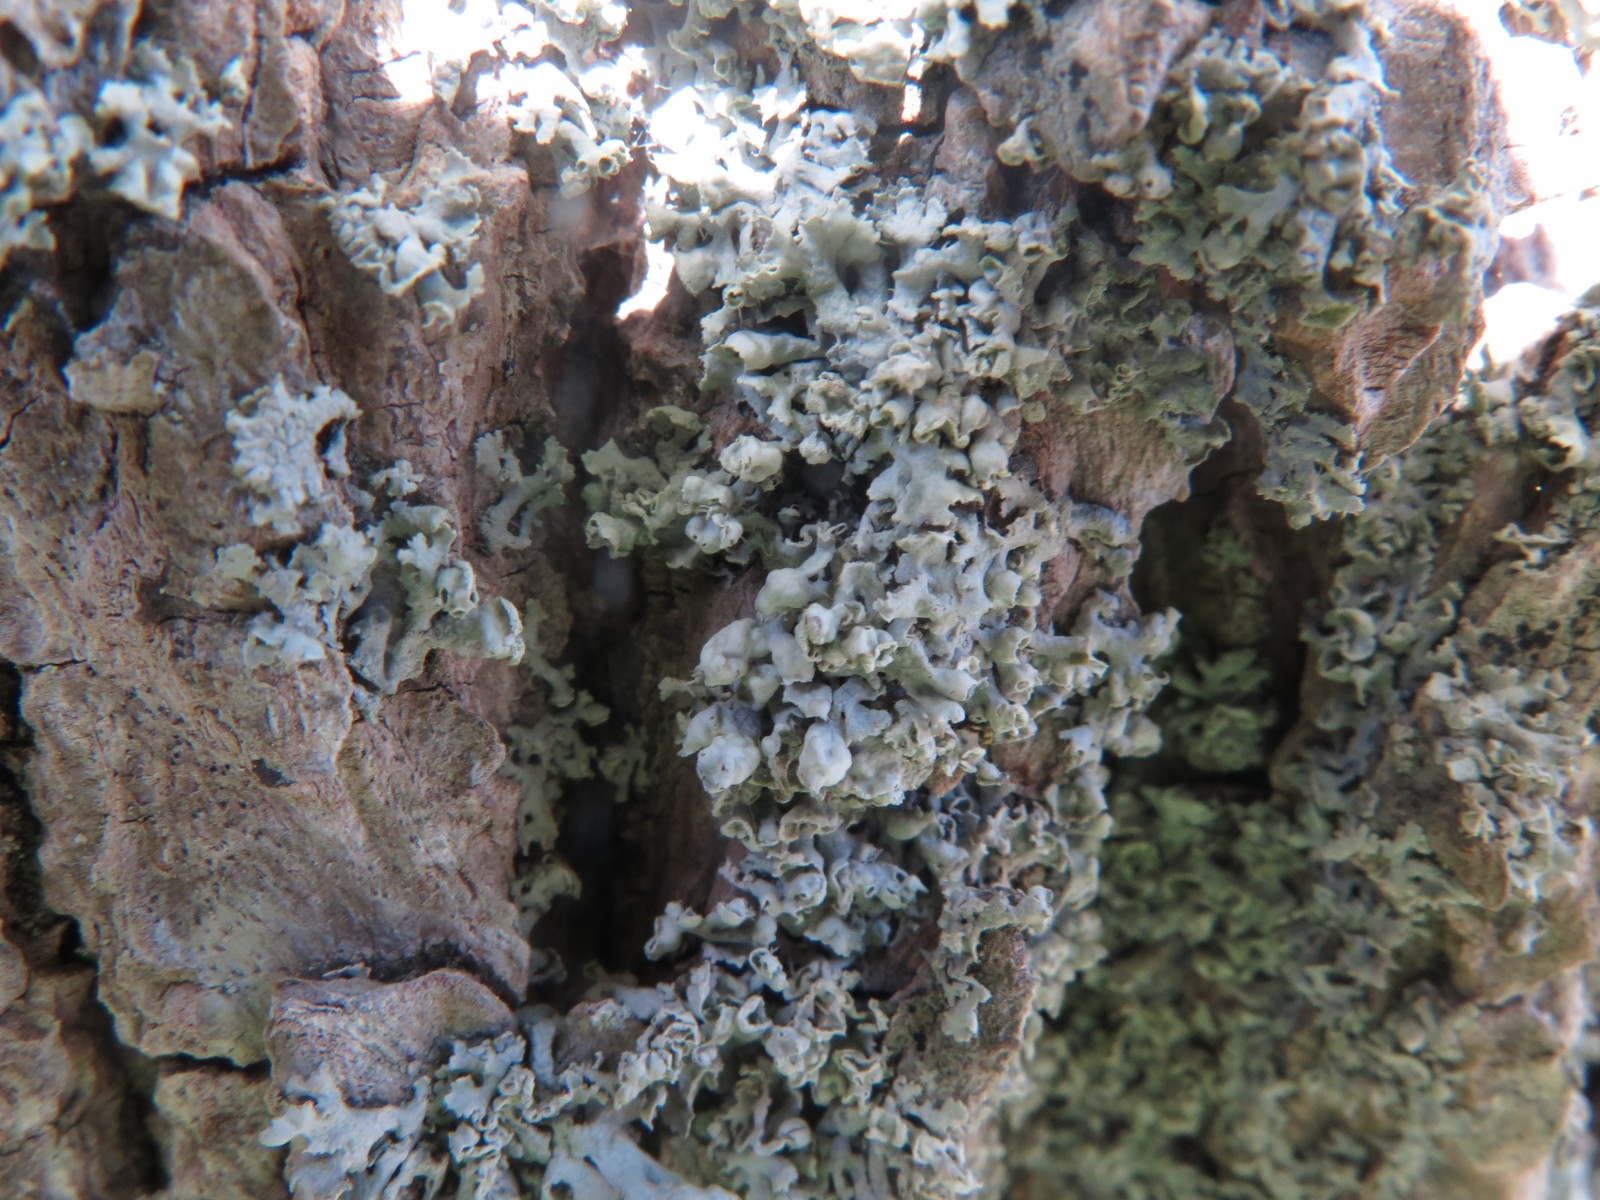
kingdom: Fungi
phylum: Ascomycota
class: Lecanoromycetes
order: Caliciales
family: Physciaceae
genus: Physcia
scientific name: Physcia adscendens
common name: hætte-rosetlav
